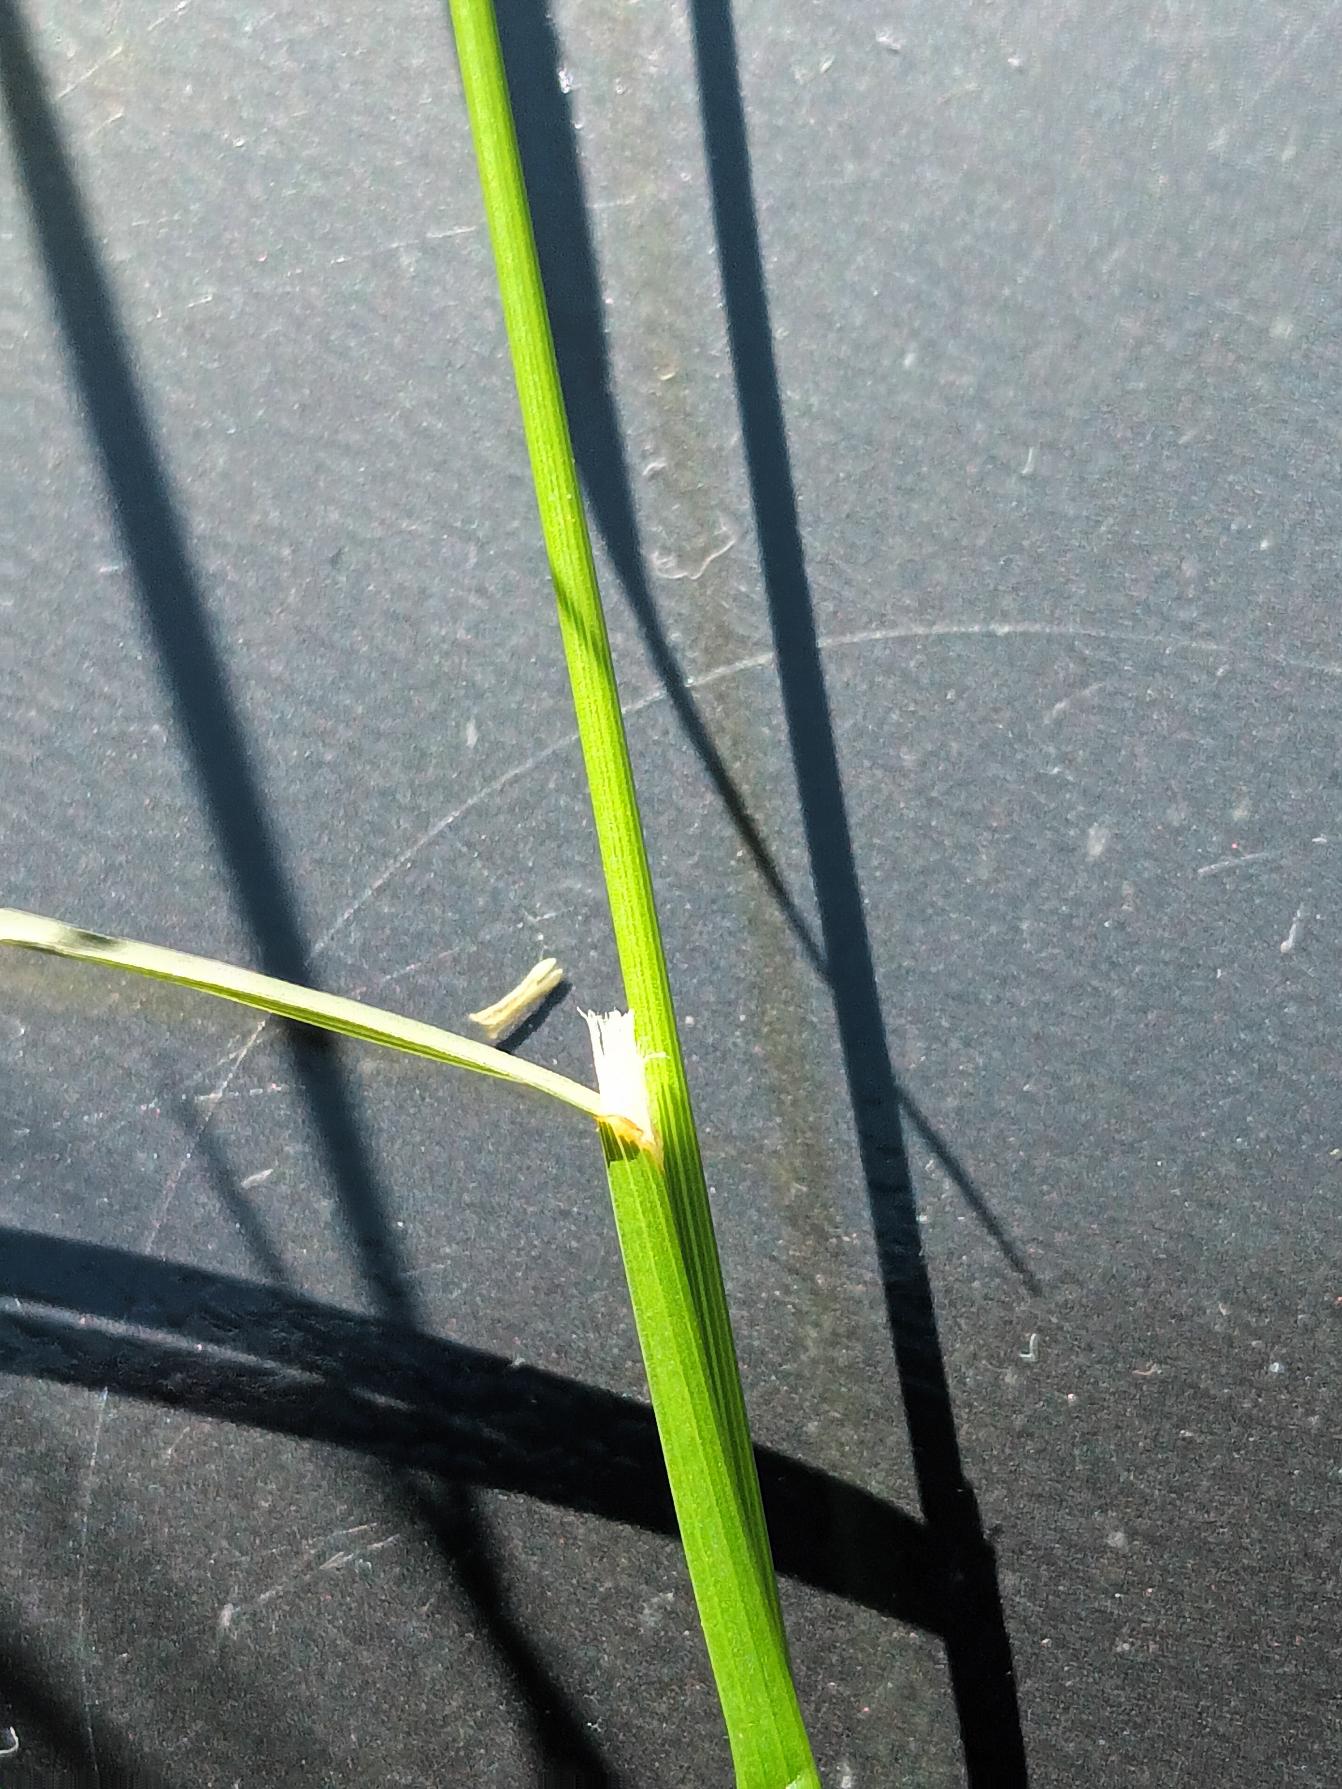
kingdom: Plantae
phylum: Tracheophyta
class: Liliopsida
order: Poales
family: Poaceae
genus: Poa
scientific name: Poa palustris
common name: Stortoppet rapgræs
